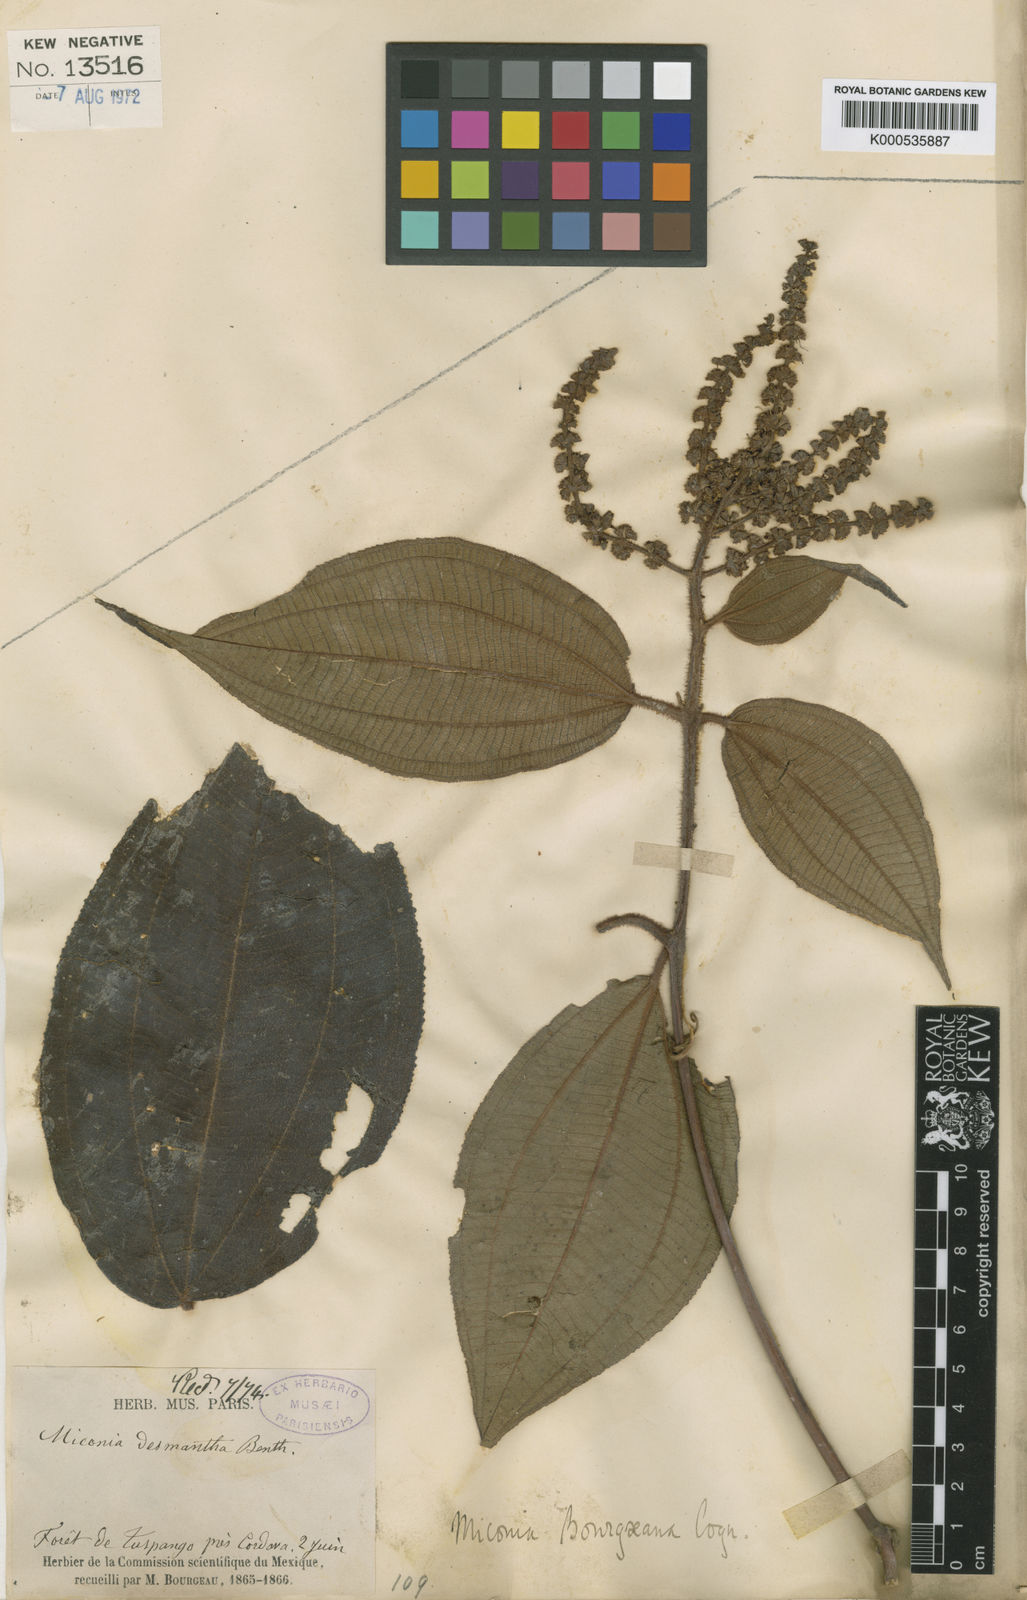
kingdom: Plantae
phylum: Tracheophyta
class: Magnoliopsida
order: Myrtales
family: Melastomataceae
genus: Miconia
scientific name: Miconia desmantha
